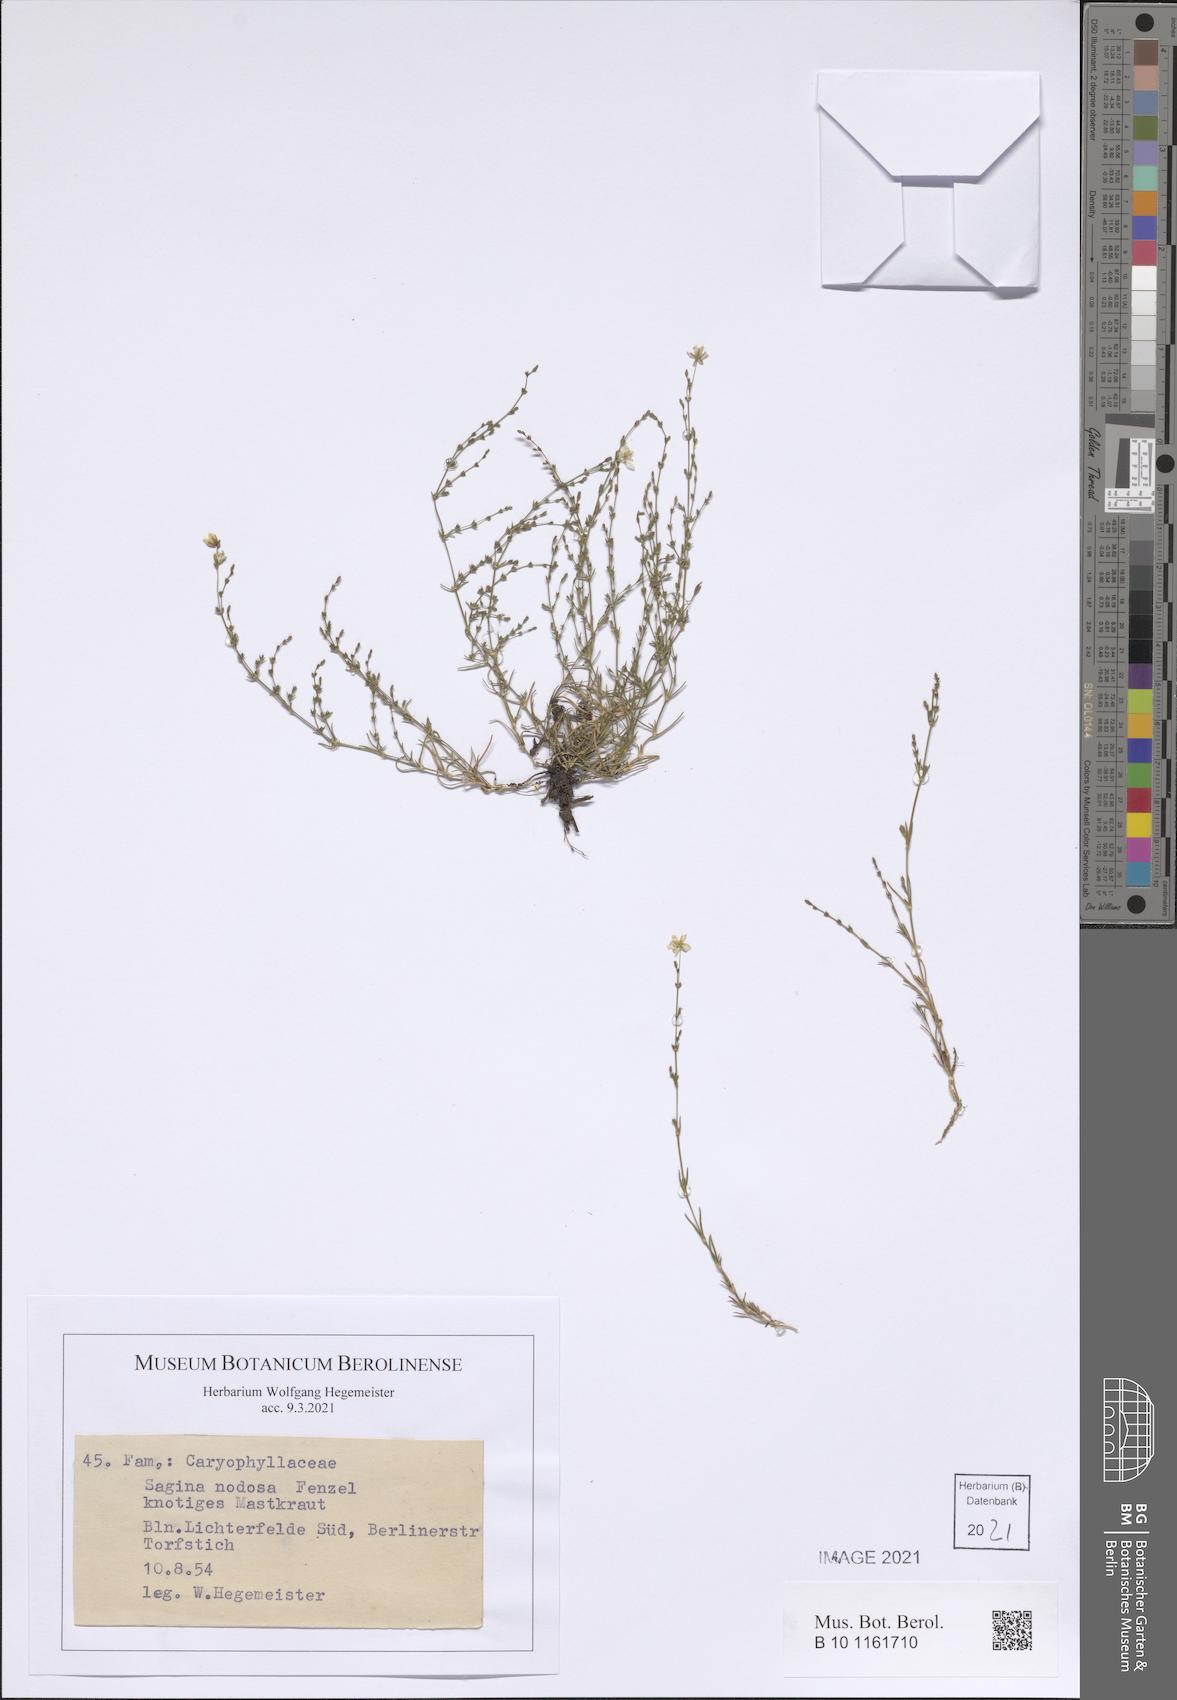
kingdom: Plantae
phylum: Tracheophyta
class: Magnoliopsida
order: Caryophyllales
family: Caryophyllaceae
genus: Sagina
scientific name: Sagina nodosa
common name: Knotted pearlwort
